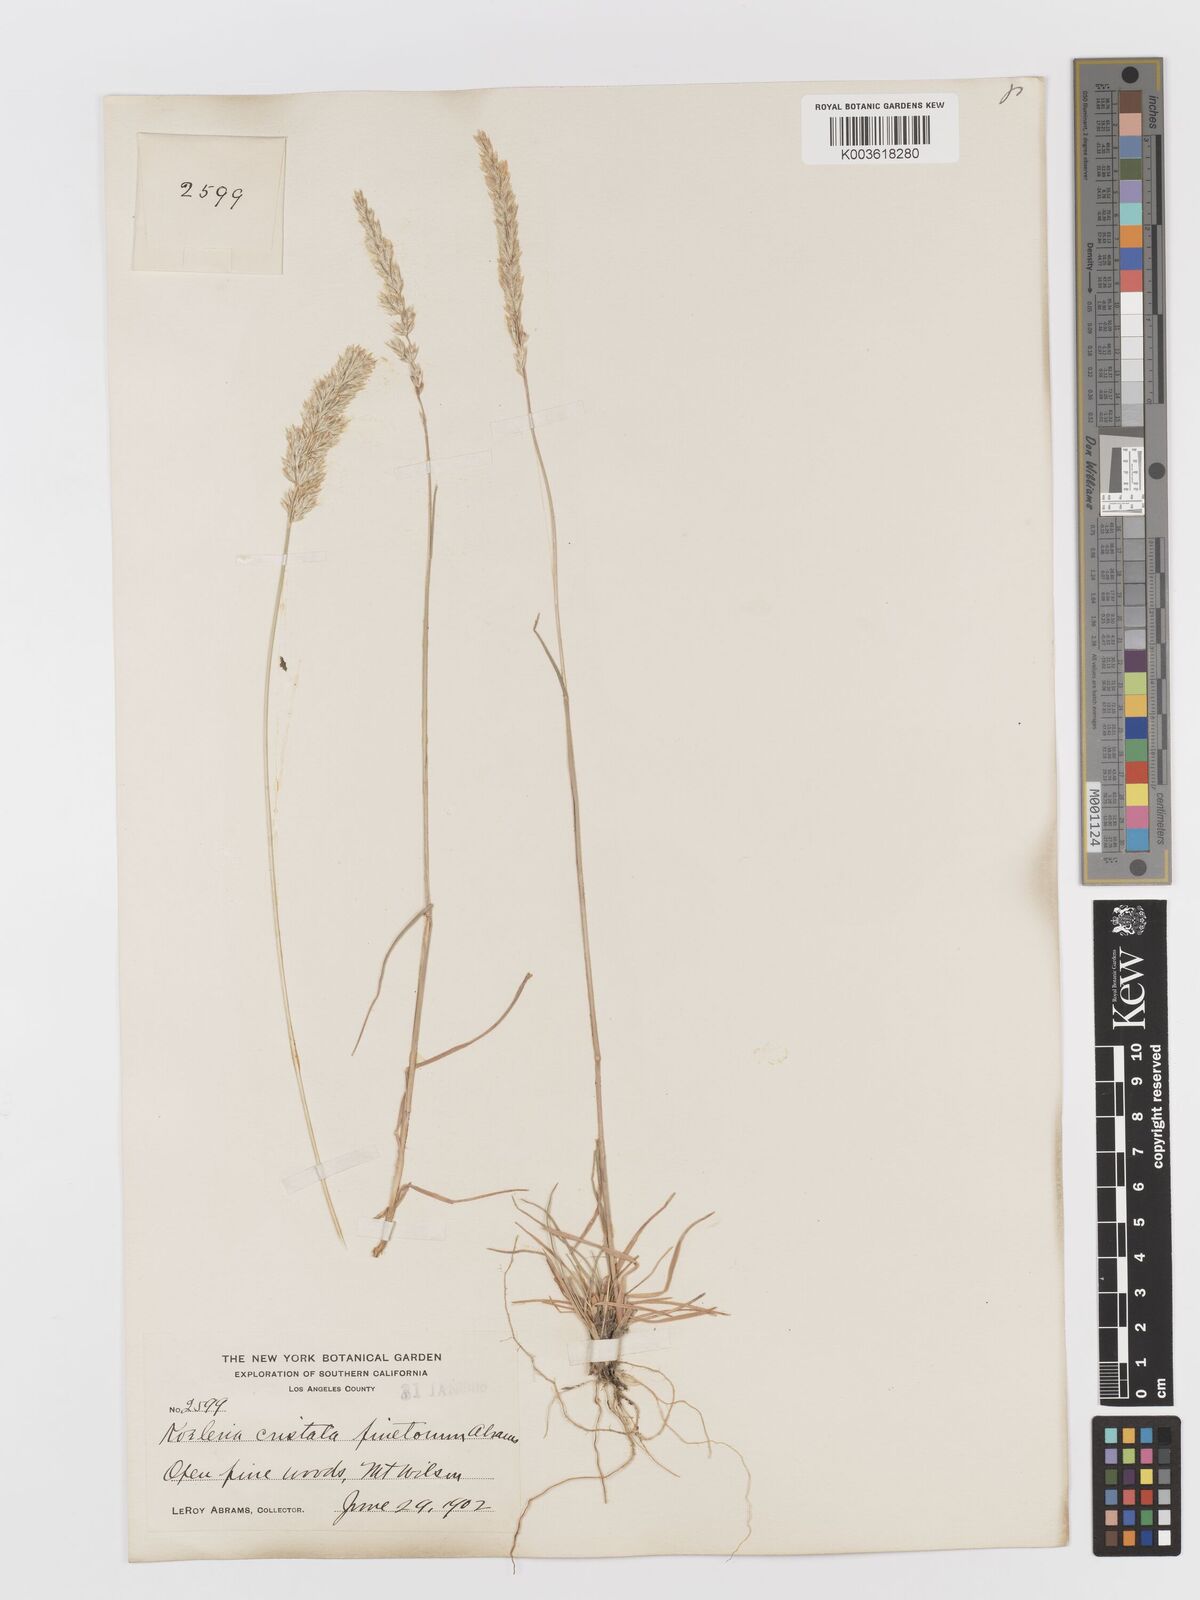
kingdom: Plantae
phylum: Tracheophyta
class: Liliopsida
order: Poales
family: Poaceae
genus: Koeleria
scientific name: Koeleria macrantha
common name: Crested hair-grass
